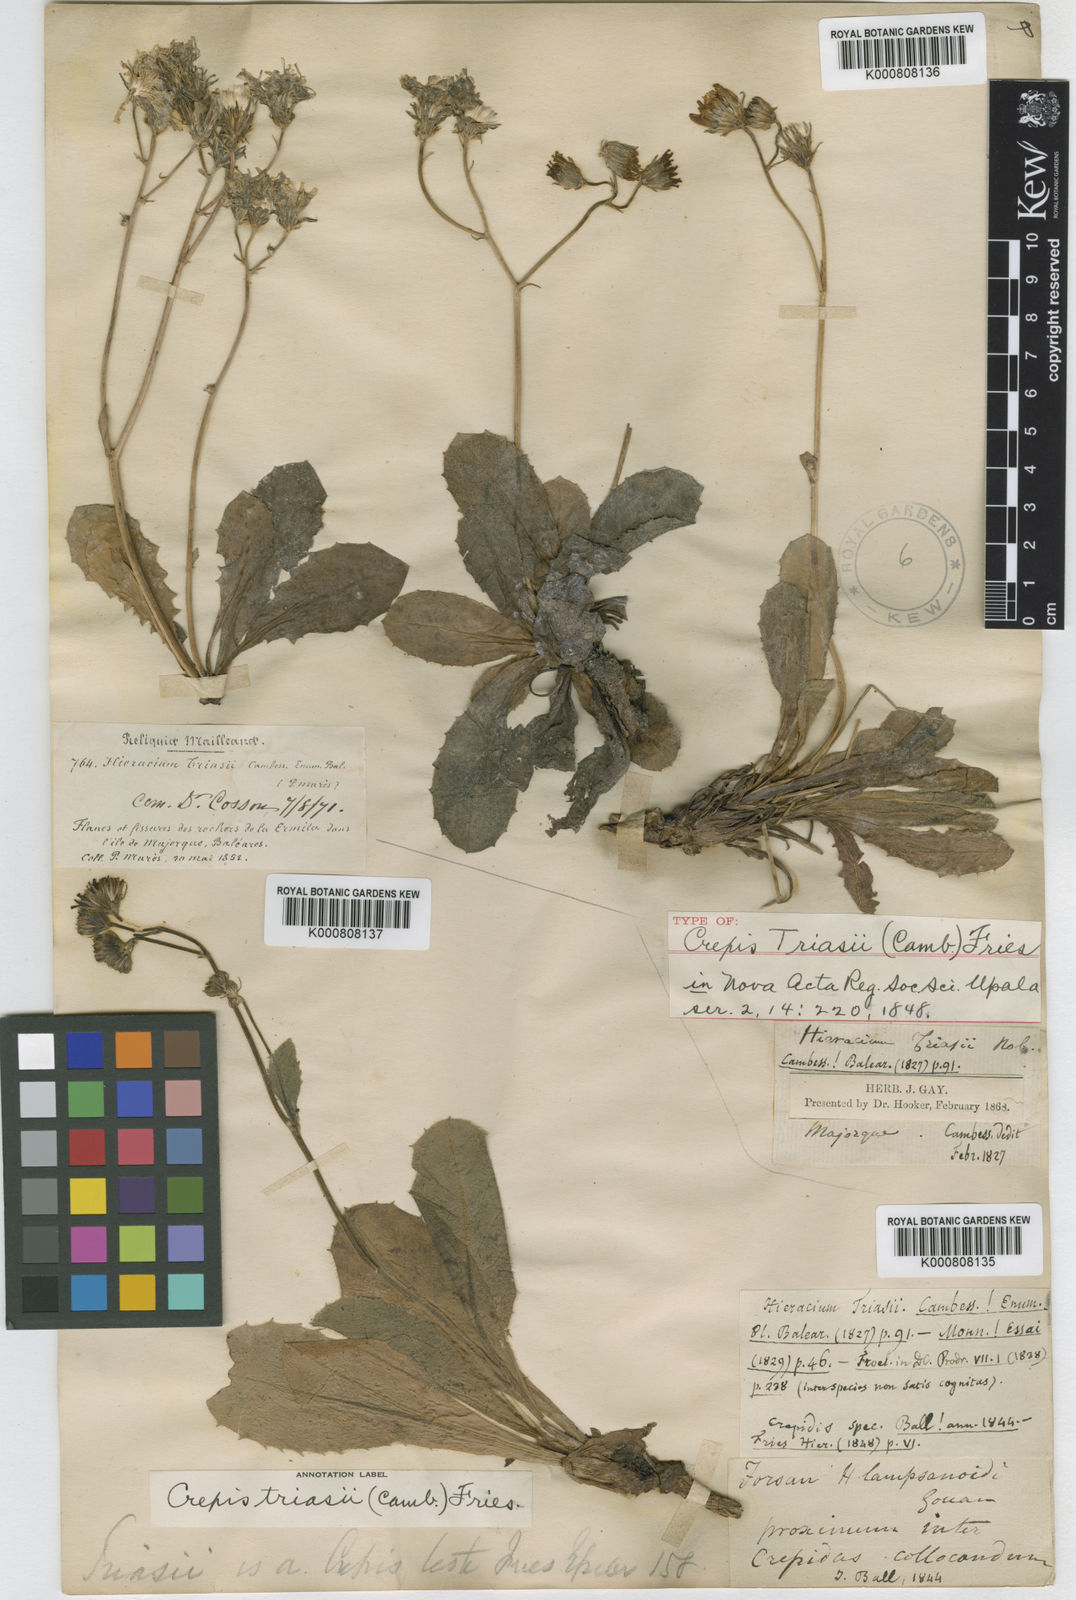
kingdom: Plantae
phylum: Tracheophyta
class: Magnoliopsida
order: Asterales
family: Asteraceae
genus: Crepis
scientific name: Crepis
